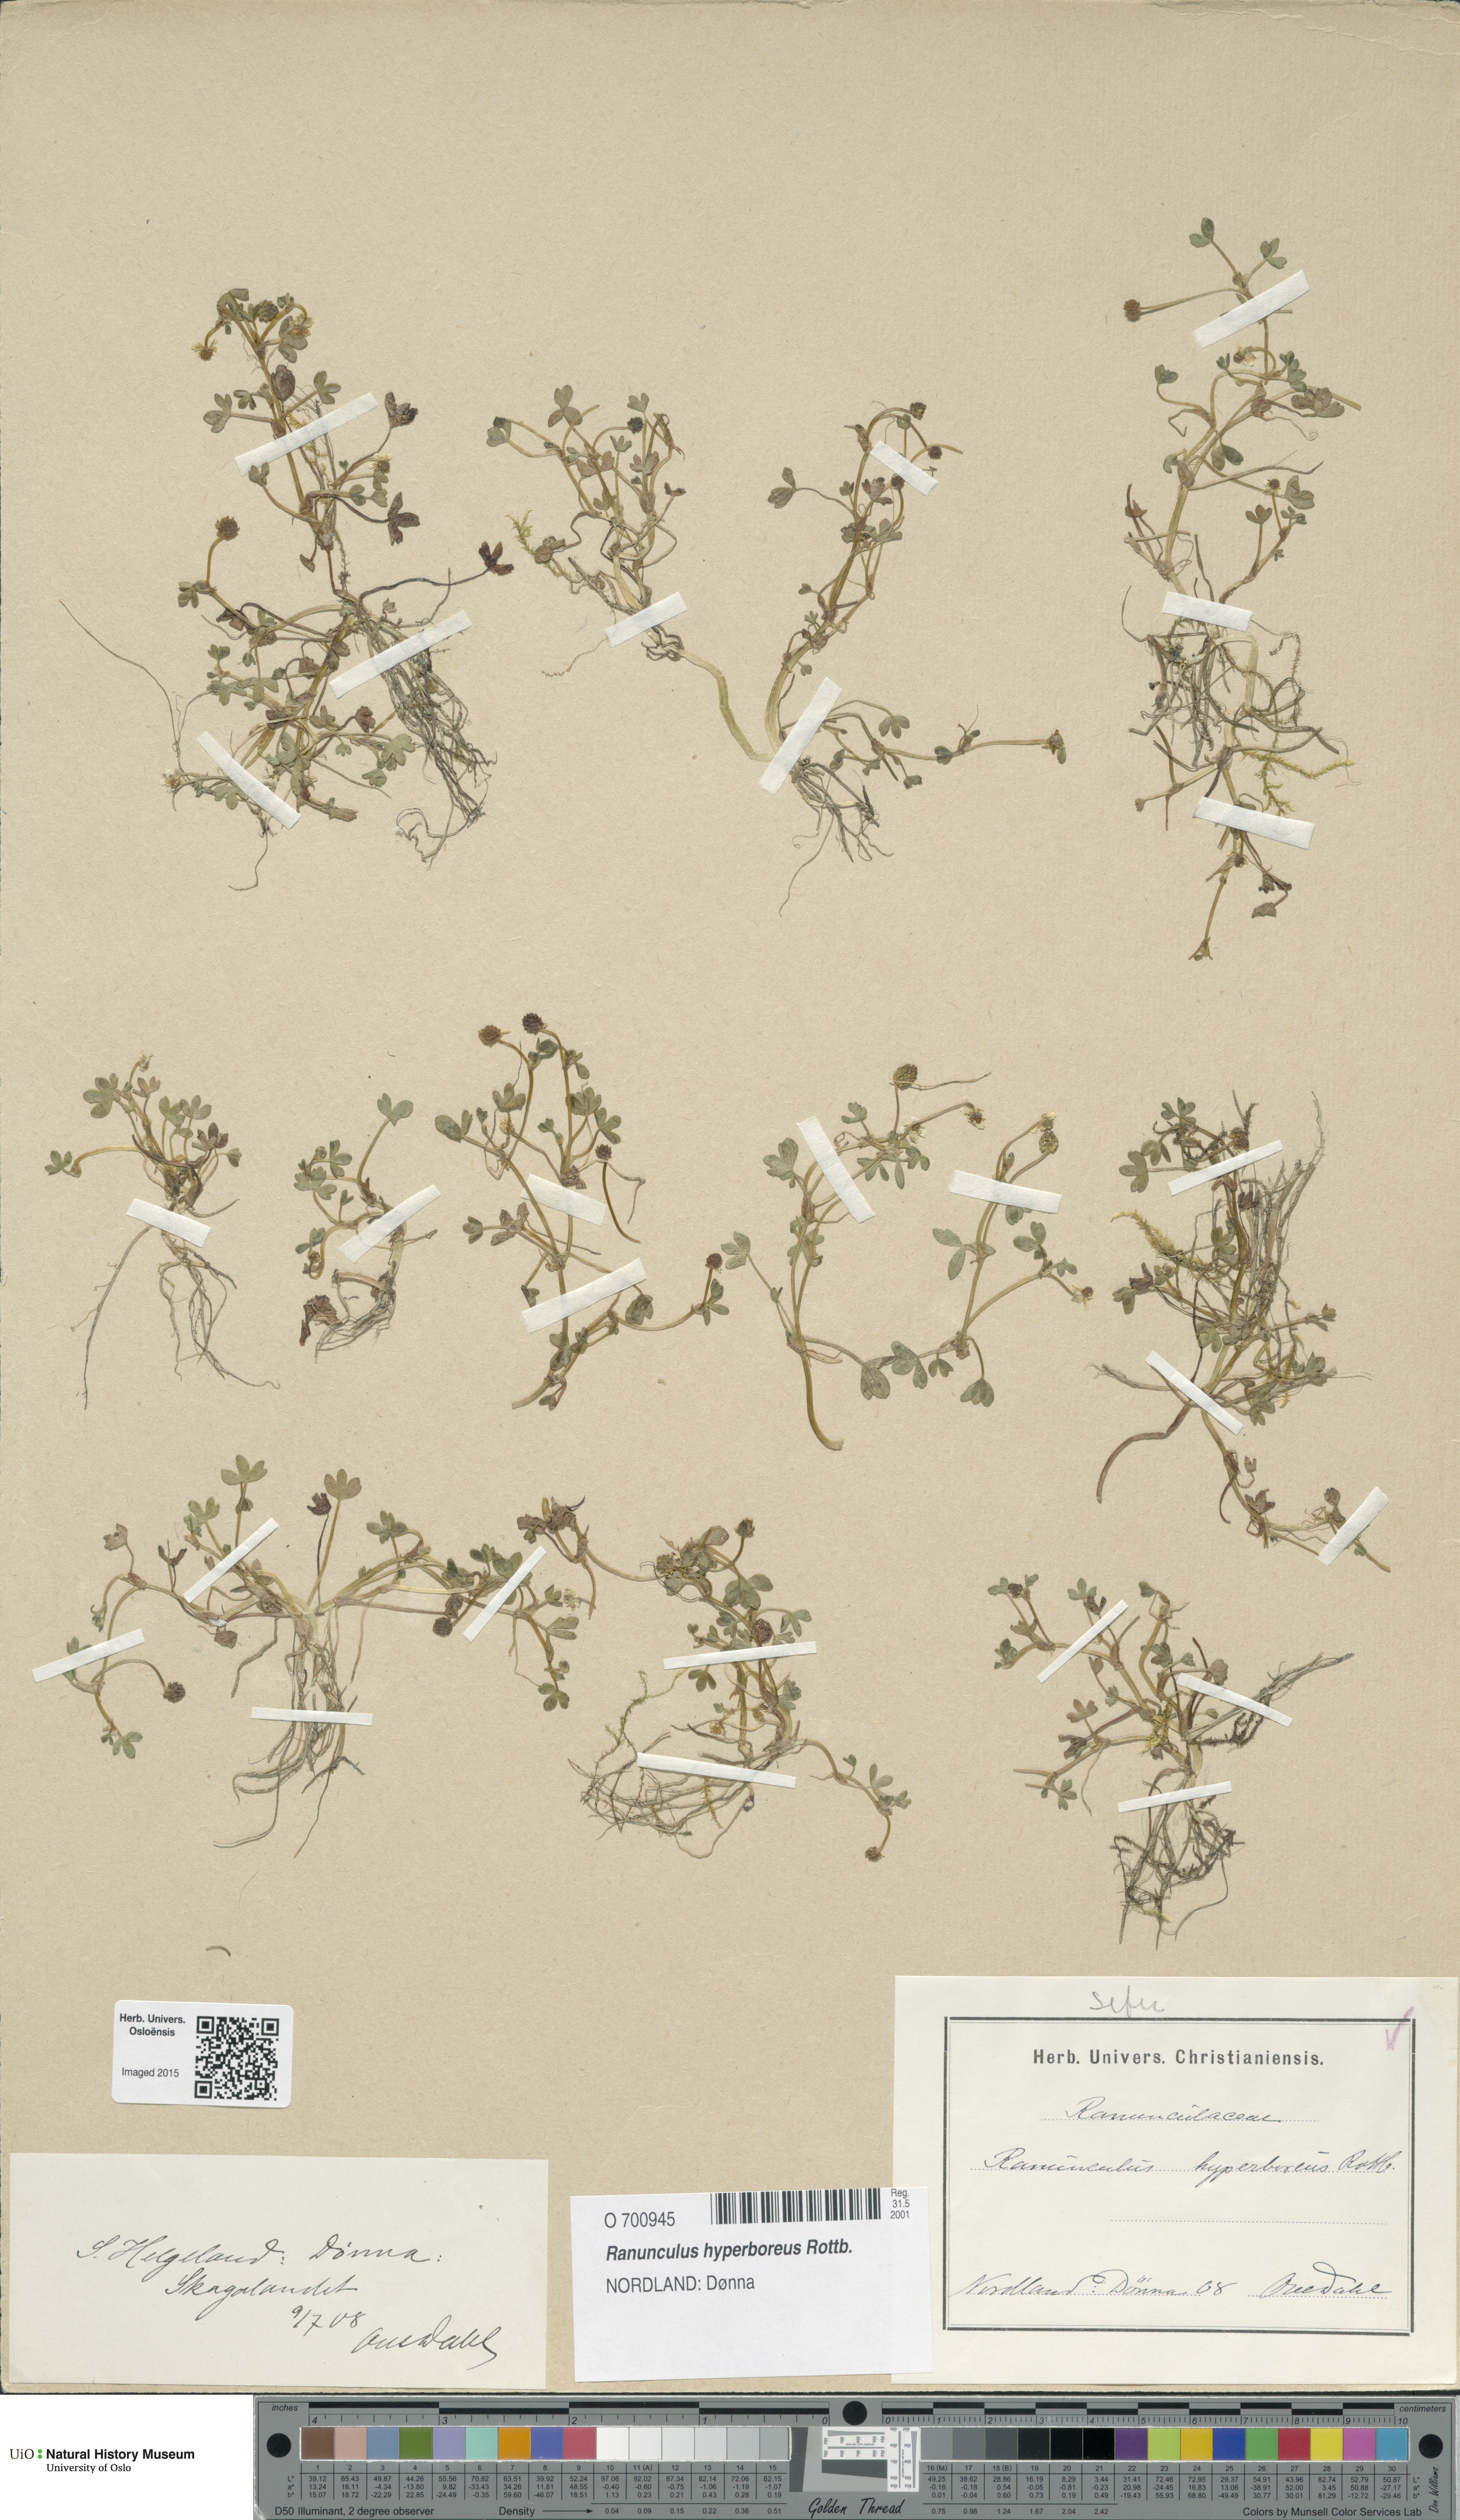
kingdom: Plantae
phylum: Tracheophyta
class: Magnoliopsida
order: Ranunculales
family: Ranunculaceae
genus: Ranunculus
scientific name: Ranunculus hyperboreus
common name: Arctic buttercup
